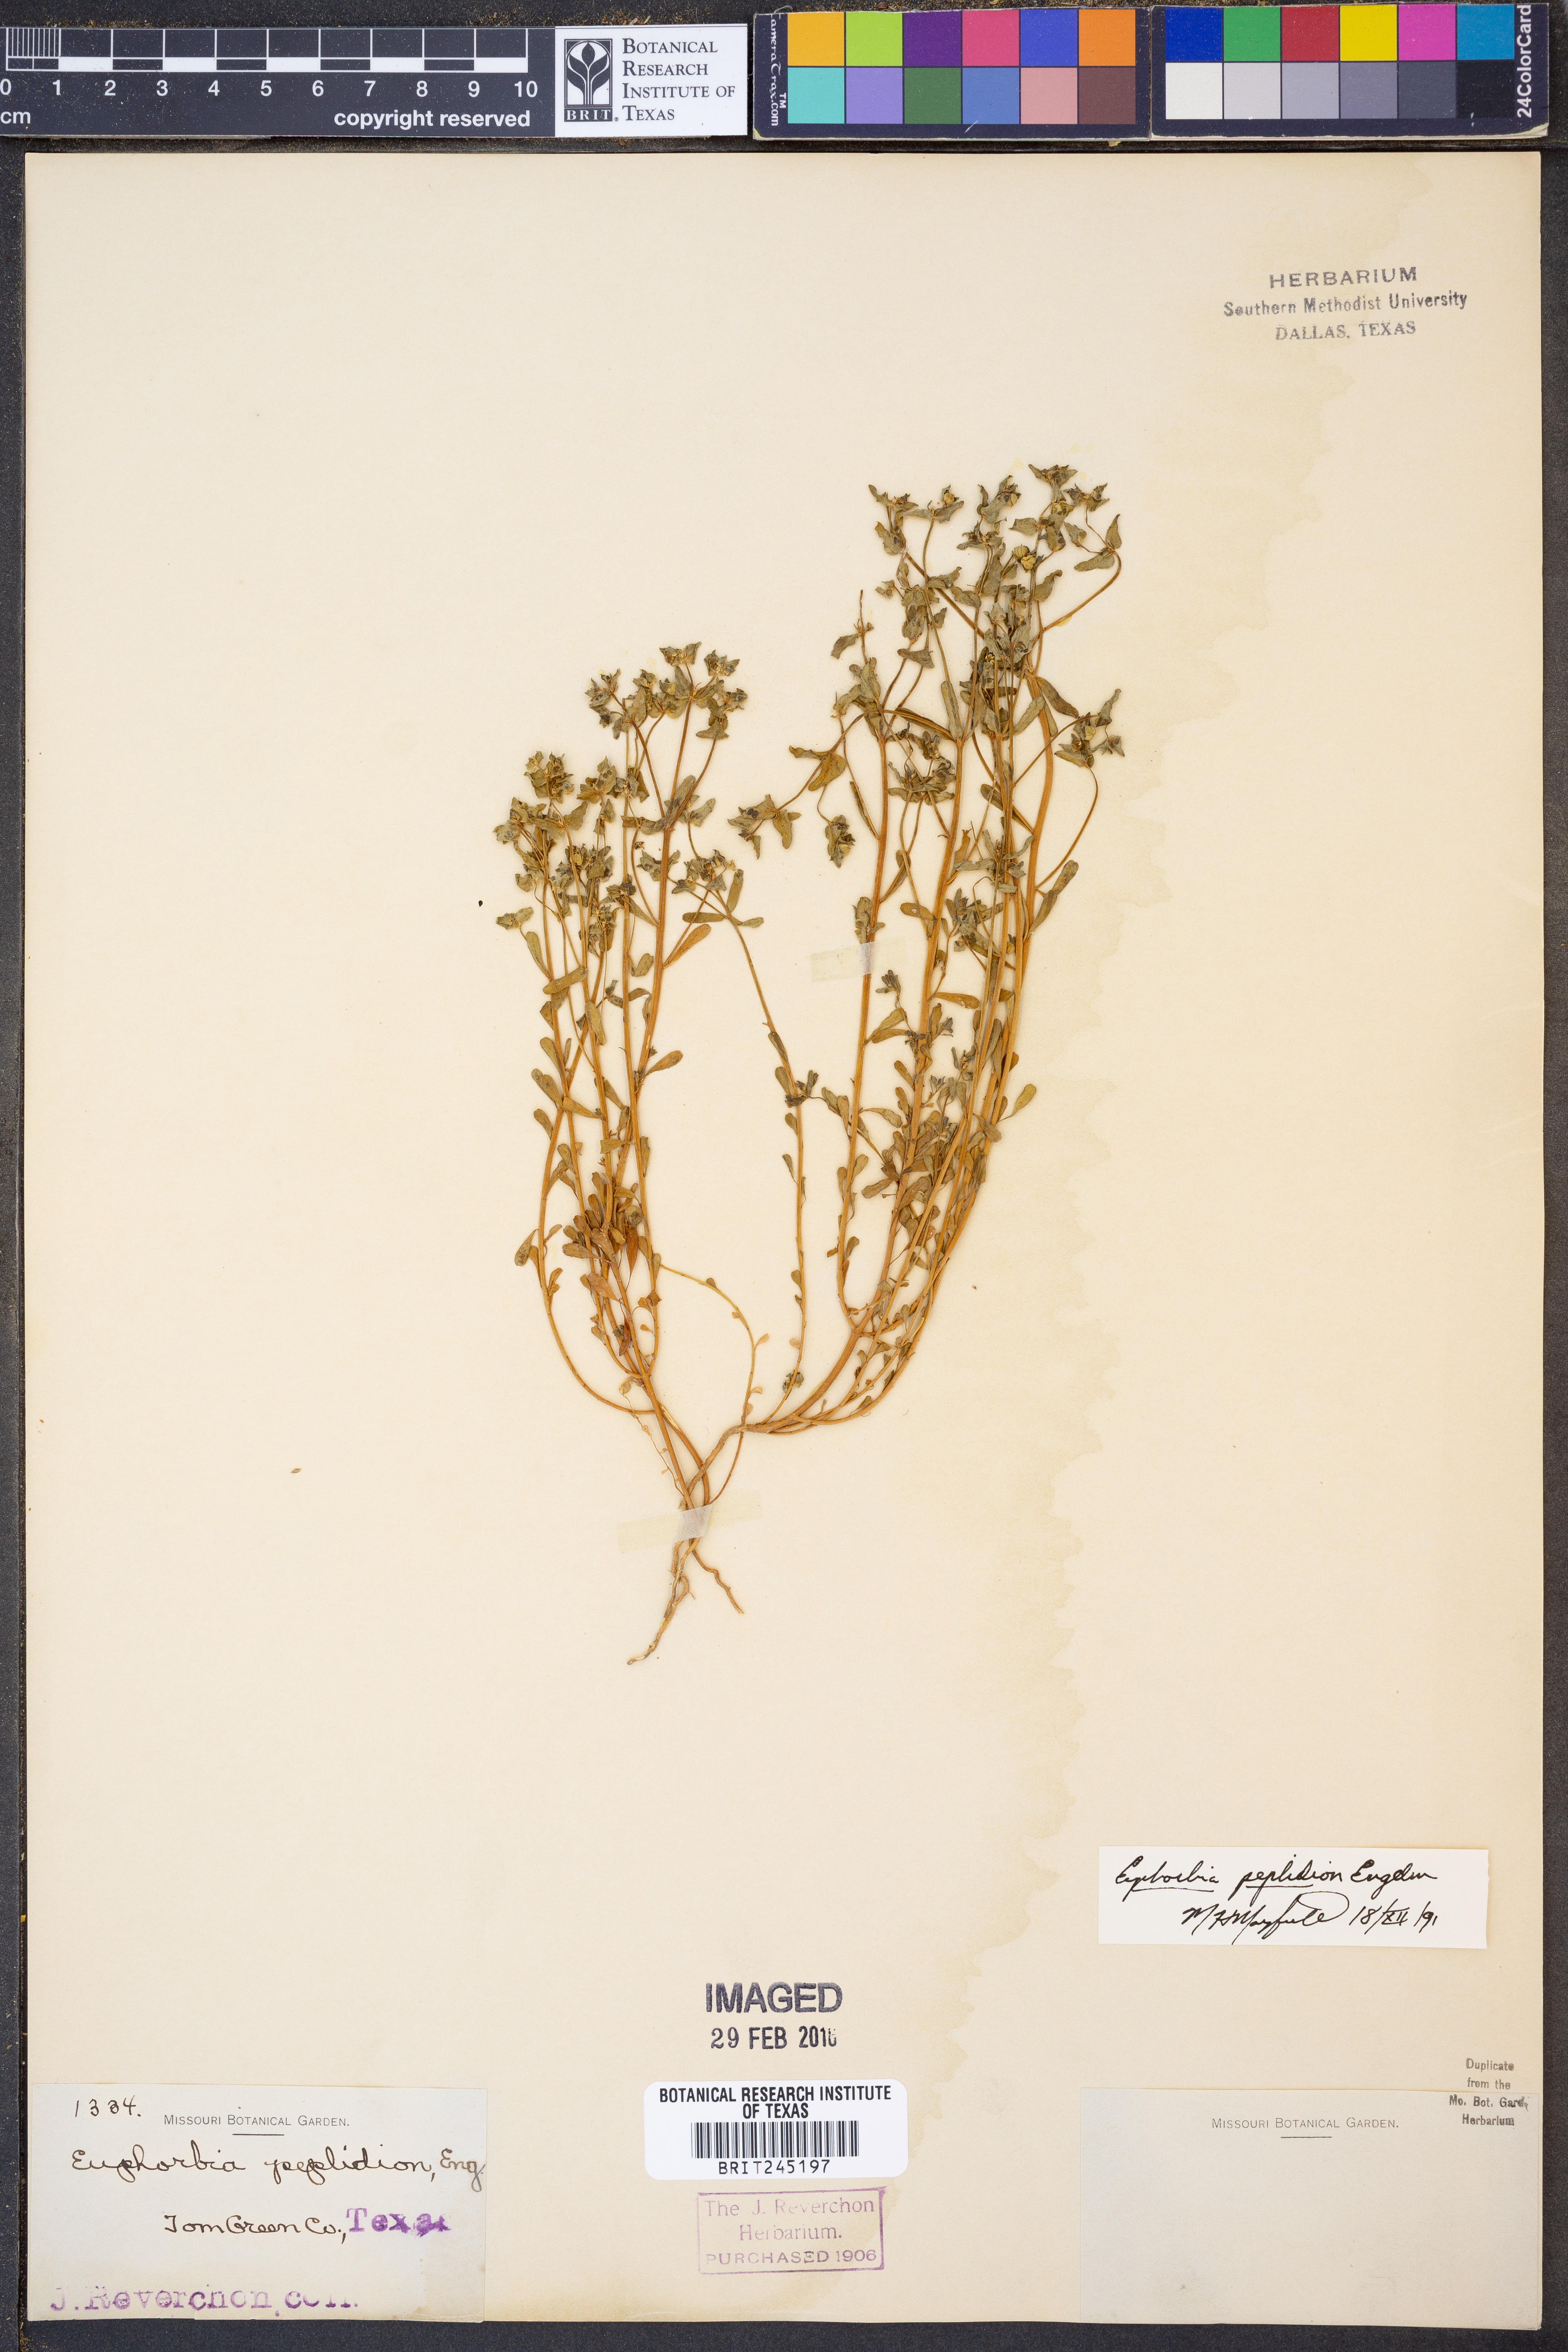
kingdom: Plantae
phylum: Tracheophyta
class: Magnoliopsida
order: Malpighiales
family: Euphorbiaceae
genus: Euphorbia
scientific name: Euphorbia peplidion
